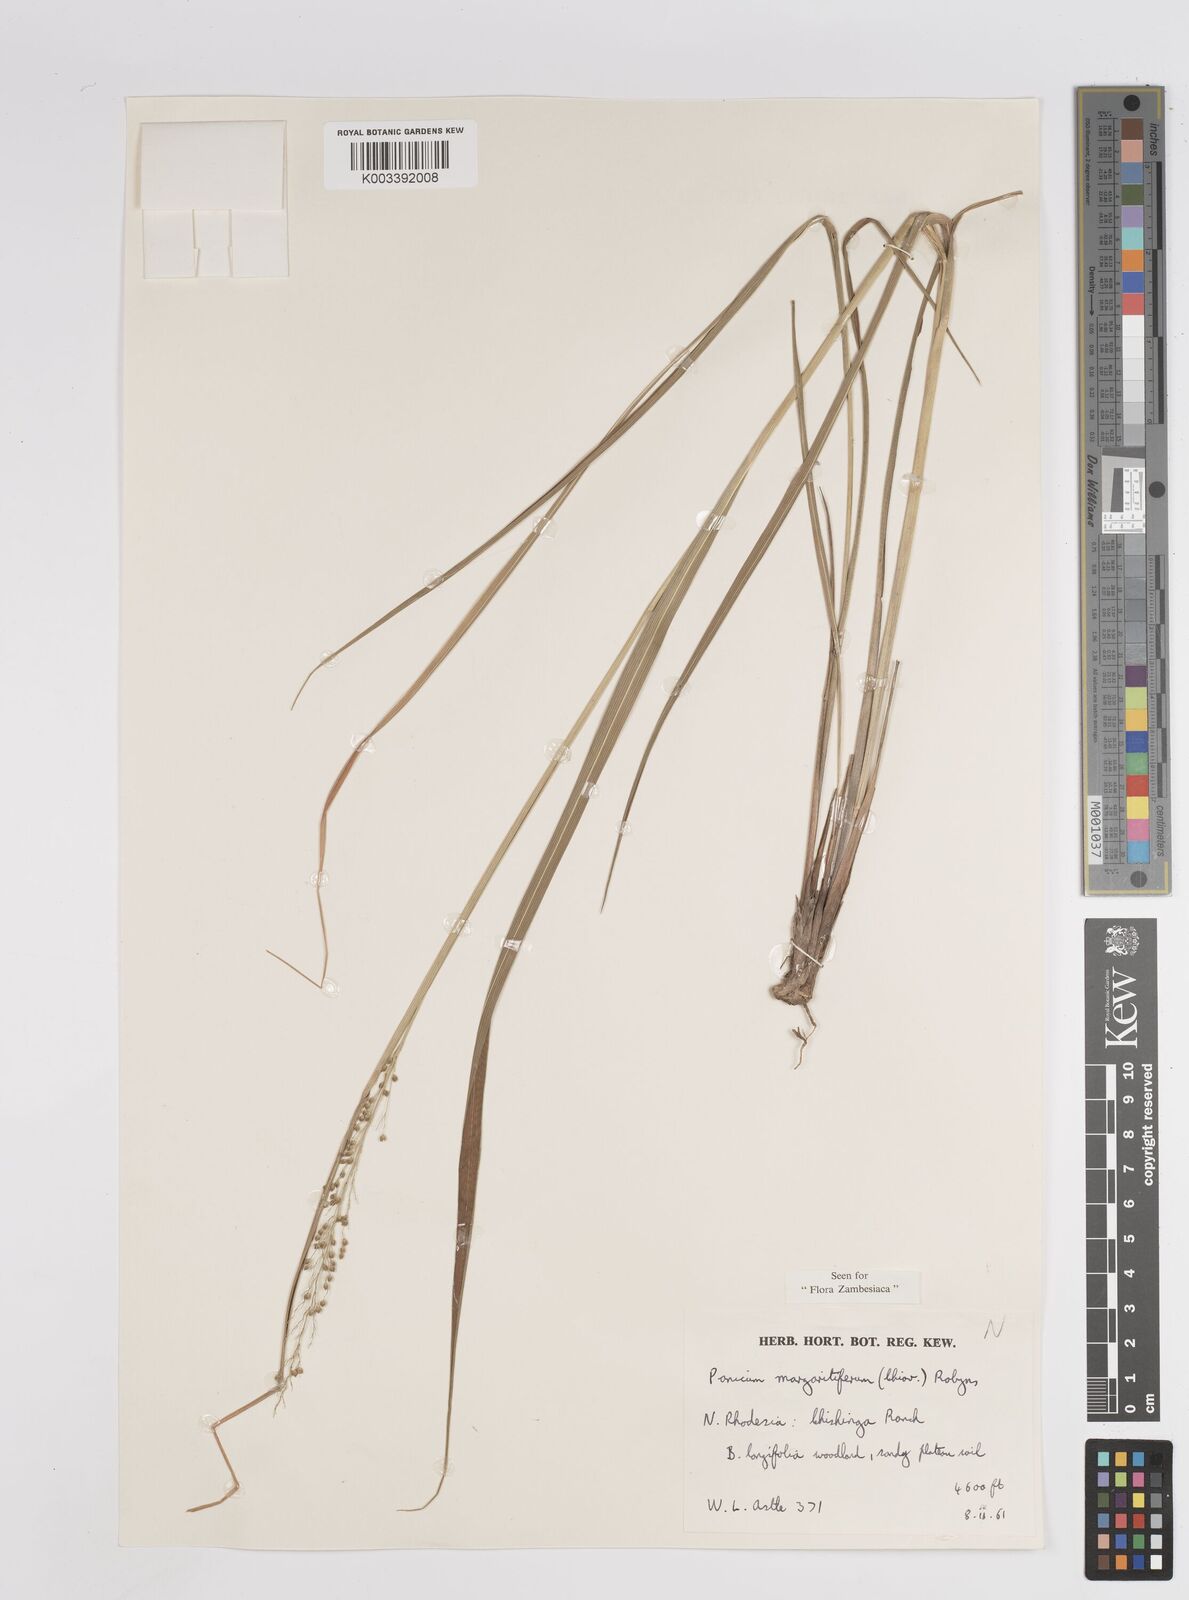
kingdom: Plantae
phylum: Tracheophyta
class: Liliopsida
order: Poales
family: Poaceae
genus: Sacciolepis
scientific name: Sacciolepis myuros
